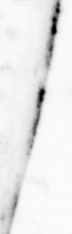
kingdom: Animalia
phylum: Chaetognatha
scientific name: Chaetognatha
